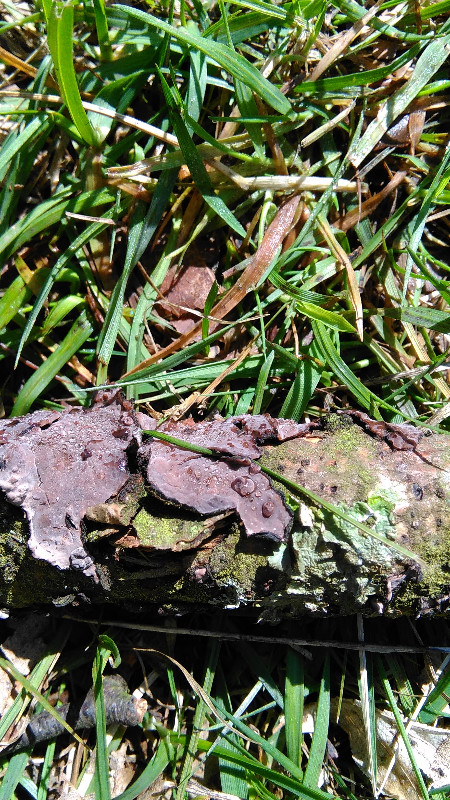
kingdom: Fungi
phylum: Basidiomycota
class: Agaricomycetes
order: Russulales
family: Peniophoraceae
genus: Peniophora
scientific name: Peniophora quercina
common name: ege-voksskind
